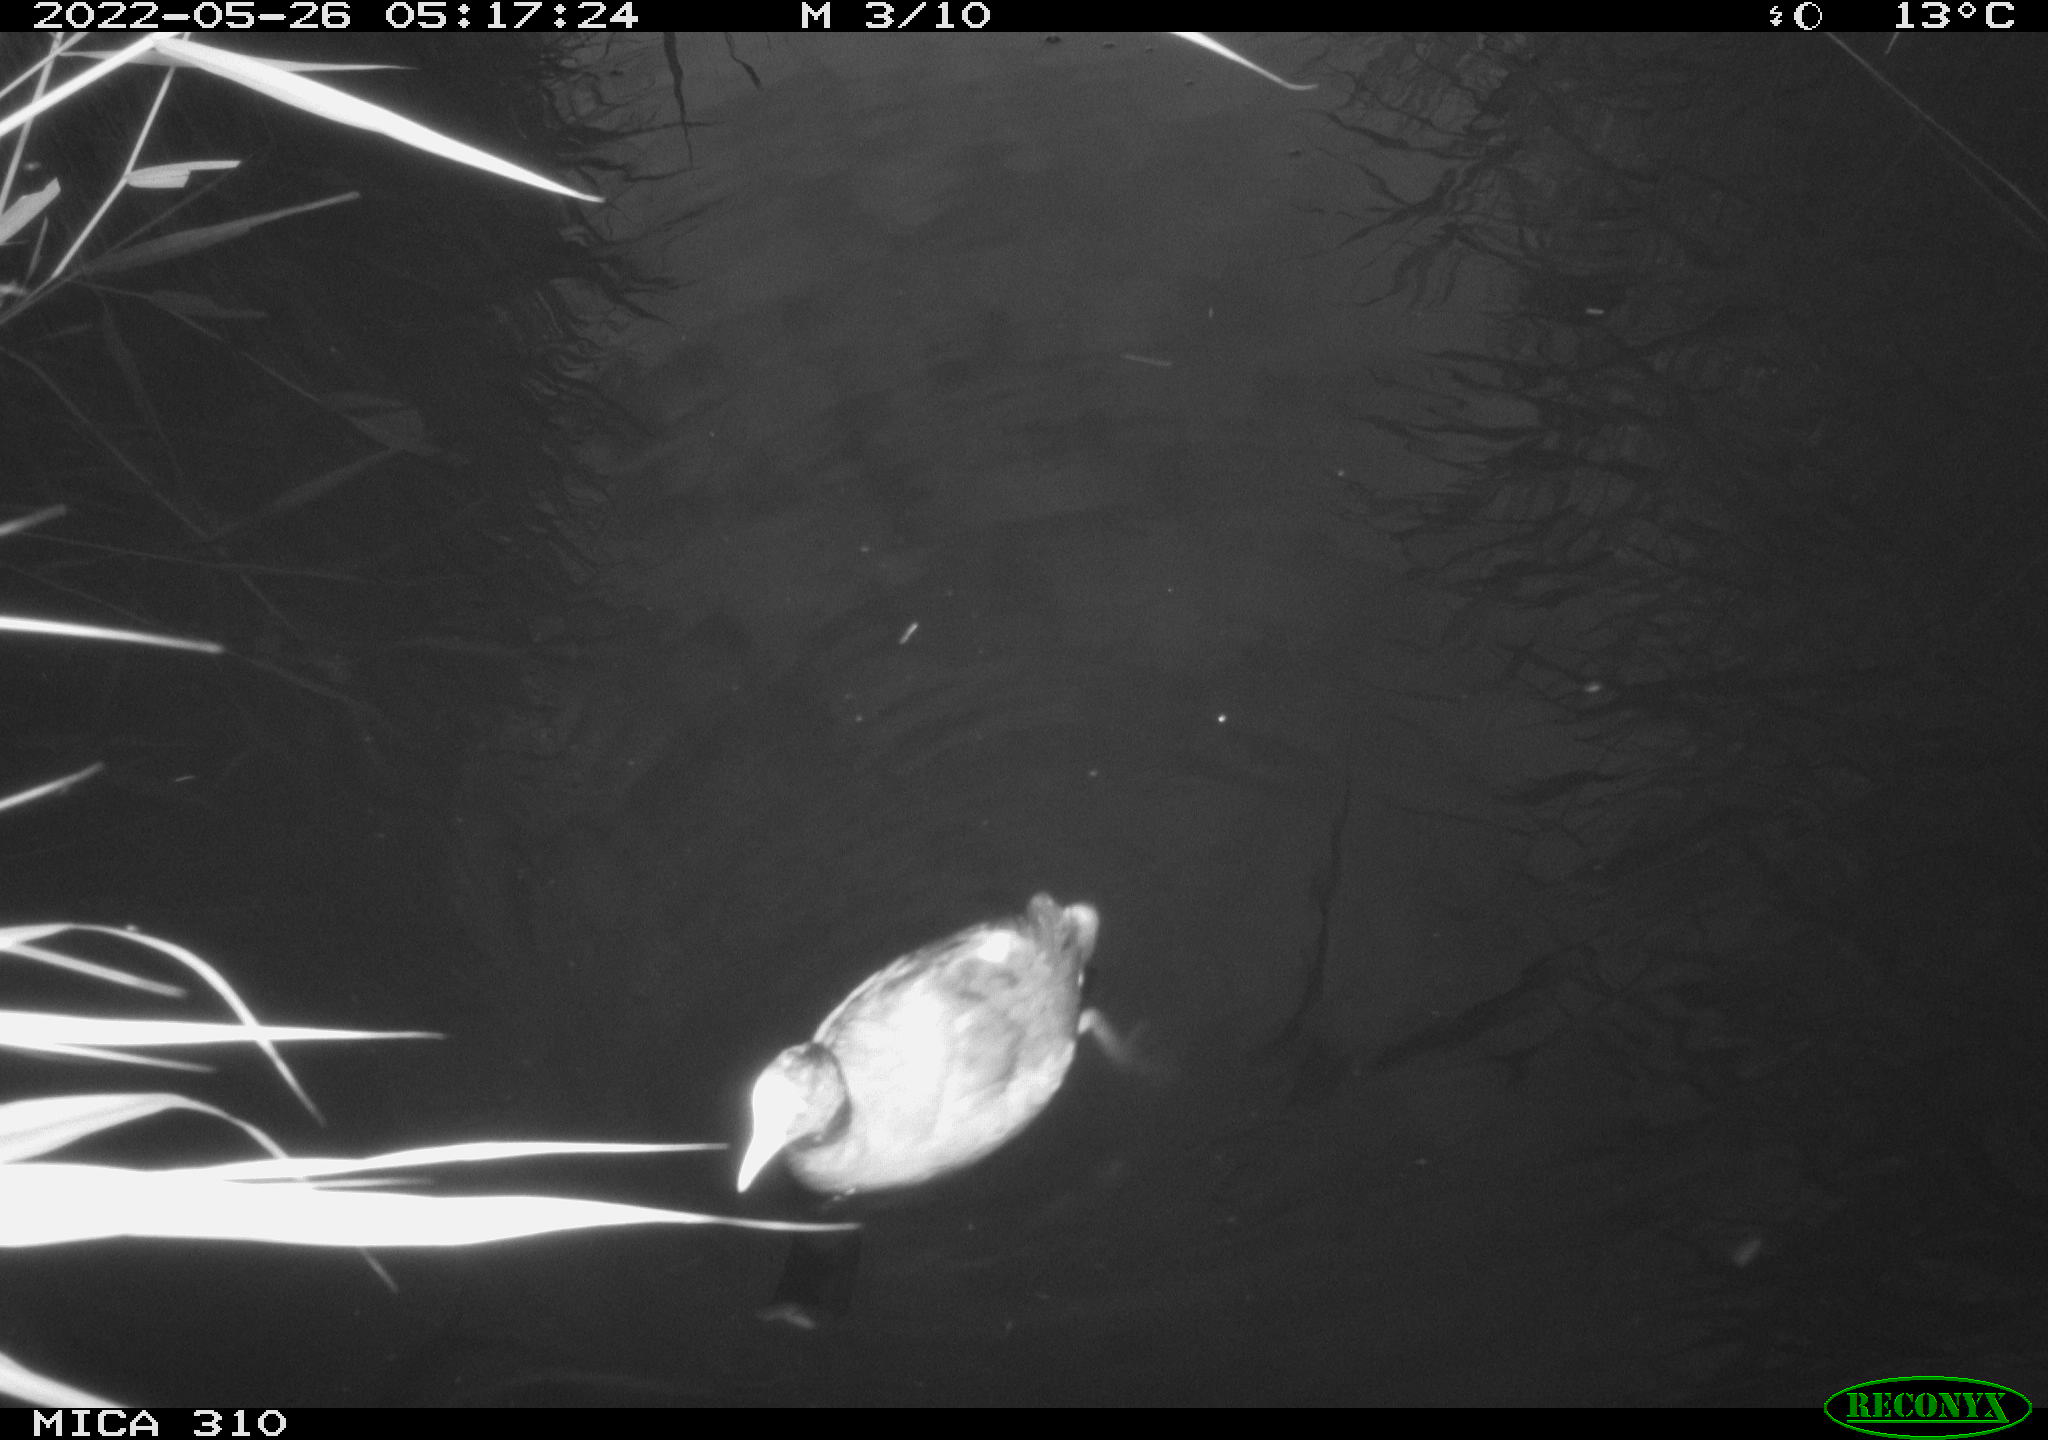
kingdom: Animalia
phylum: Chordata
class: Aves
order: Gruiformes
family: Rallidae
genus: Fulica
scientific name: Fulica atra
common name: Eurasian coot
